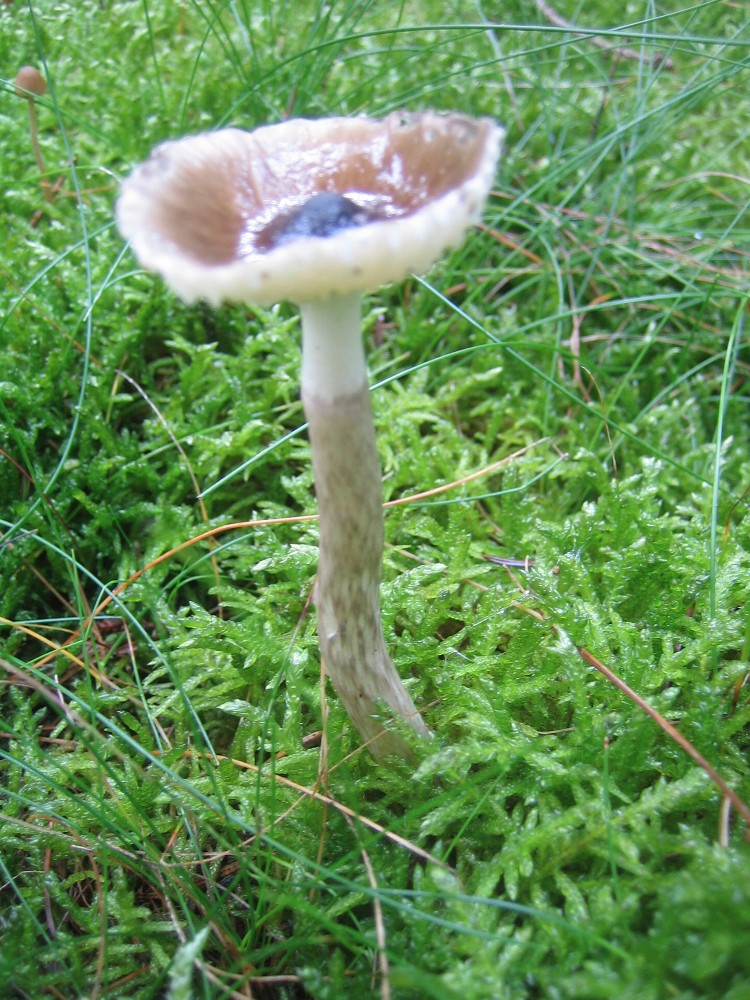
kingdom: Fungi
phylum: Basidiomycota
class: Agaricomycetes
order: Agaricales
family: Hygrophoraceae
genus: Hygrophorus
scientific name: Hygrophorus olivaceoalbus
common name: hvidbrun sneglehat
